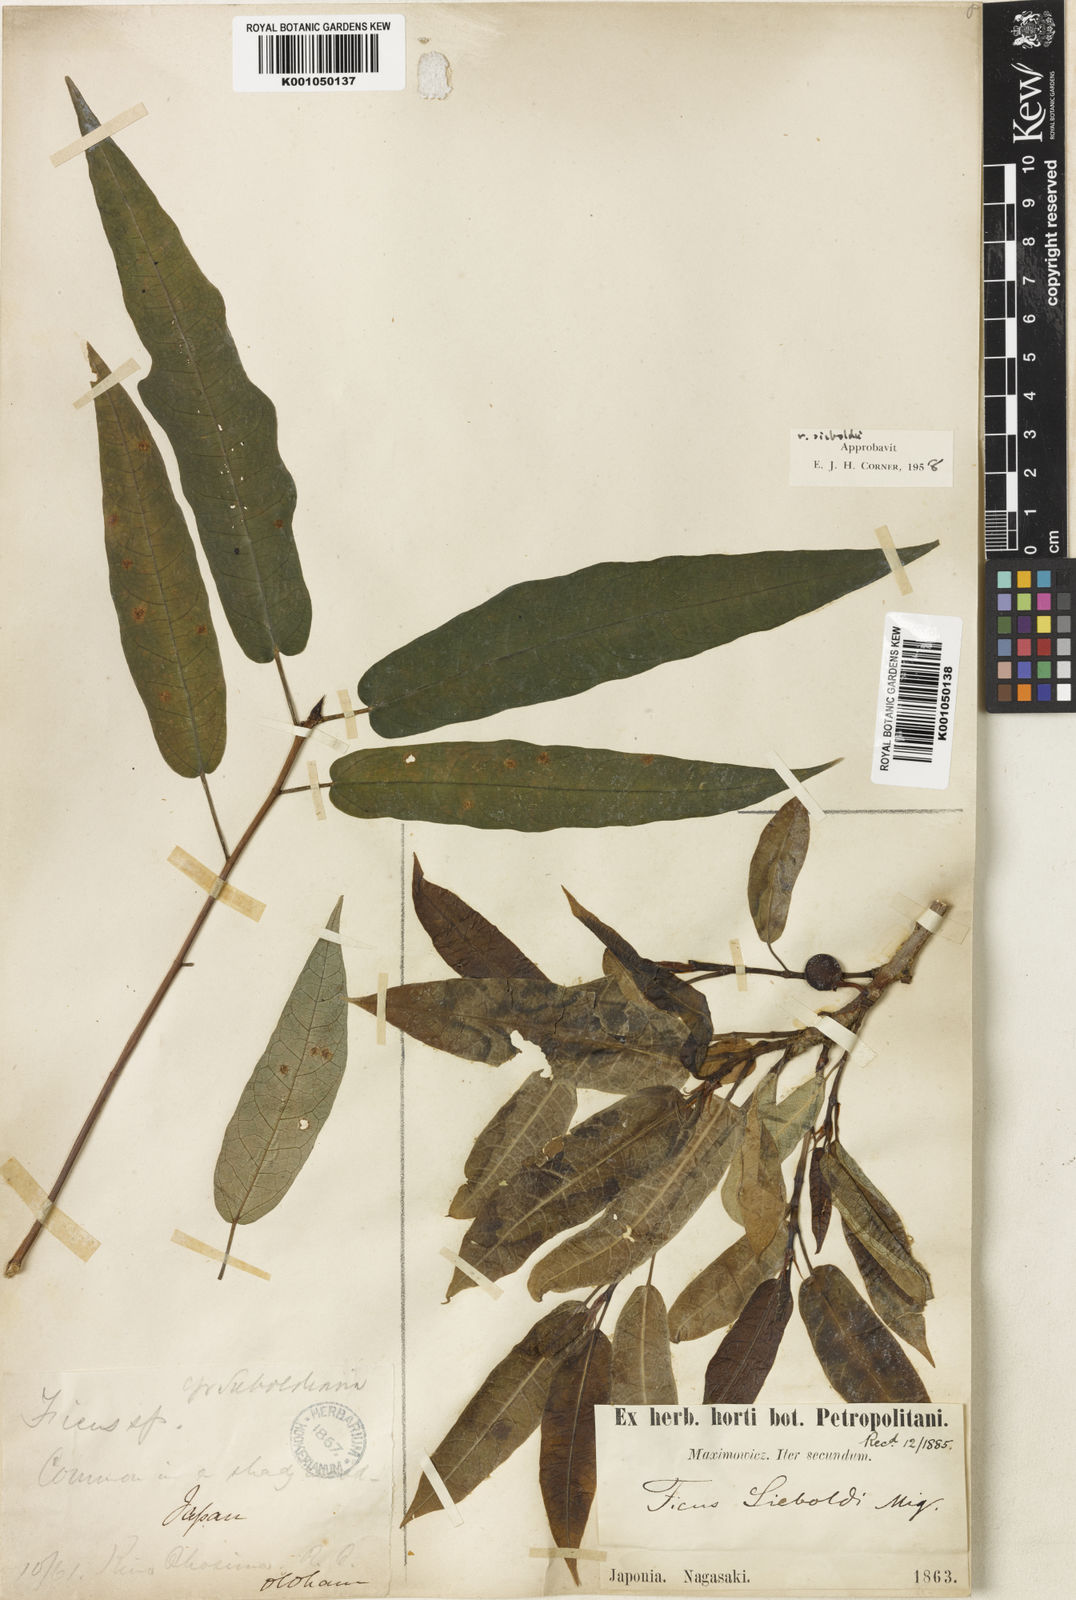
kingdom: Plantae
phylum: Tracheophyta
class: Magnoliopsida
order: Rosales
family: Moraceae
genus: Ficus
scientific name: Ficus erecta
